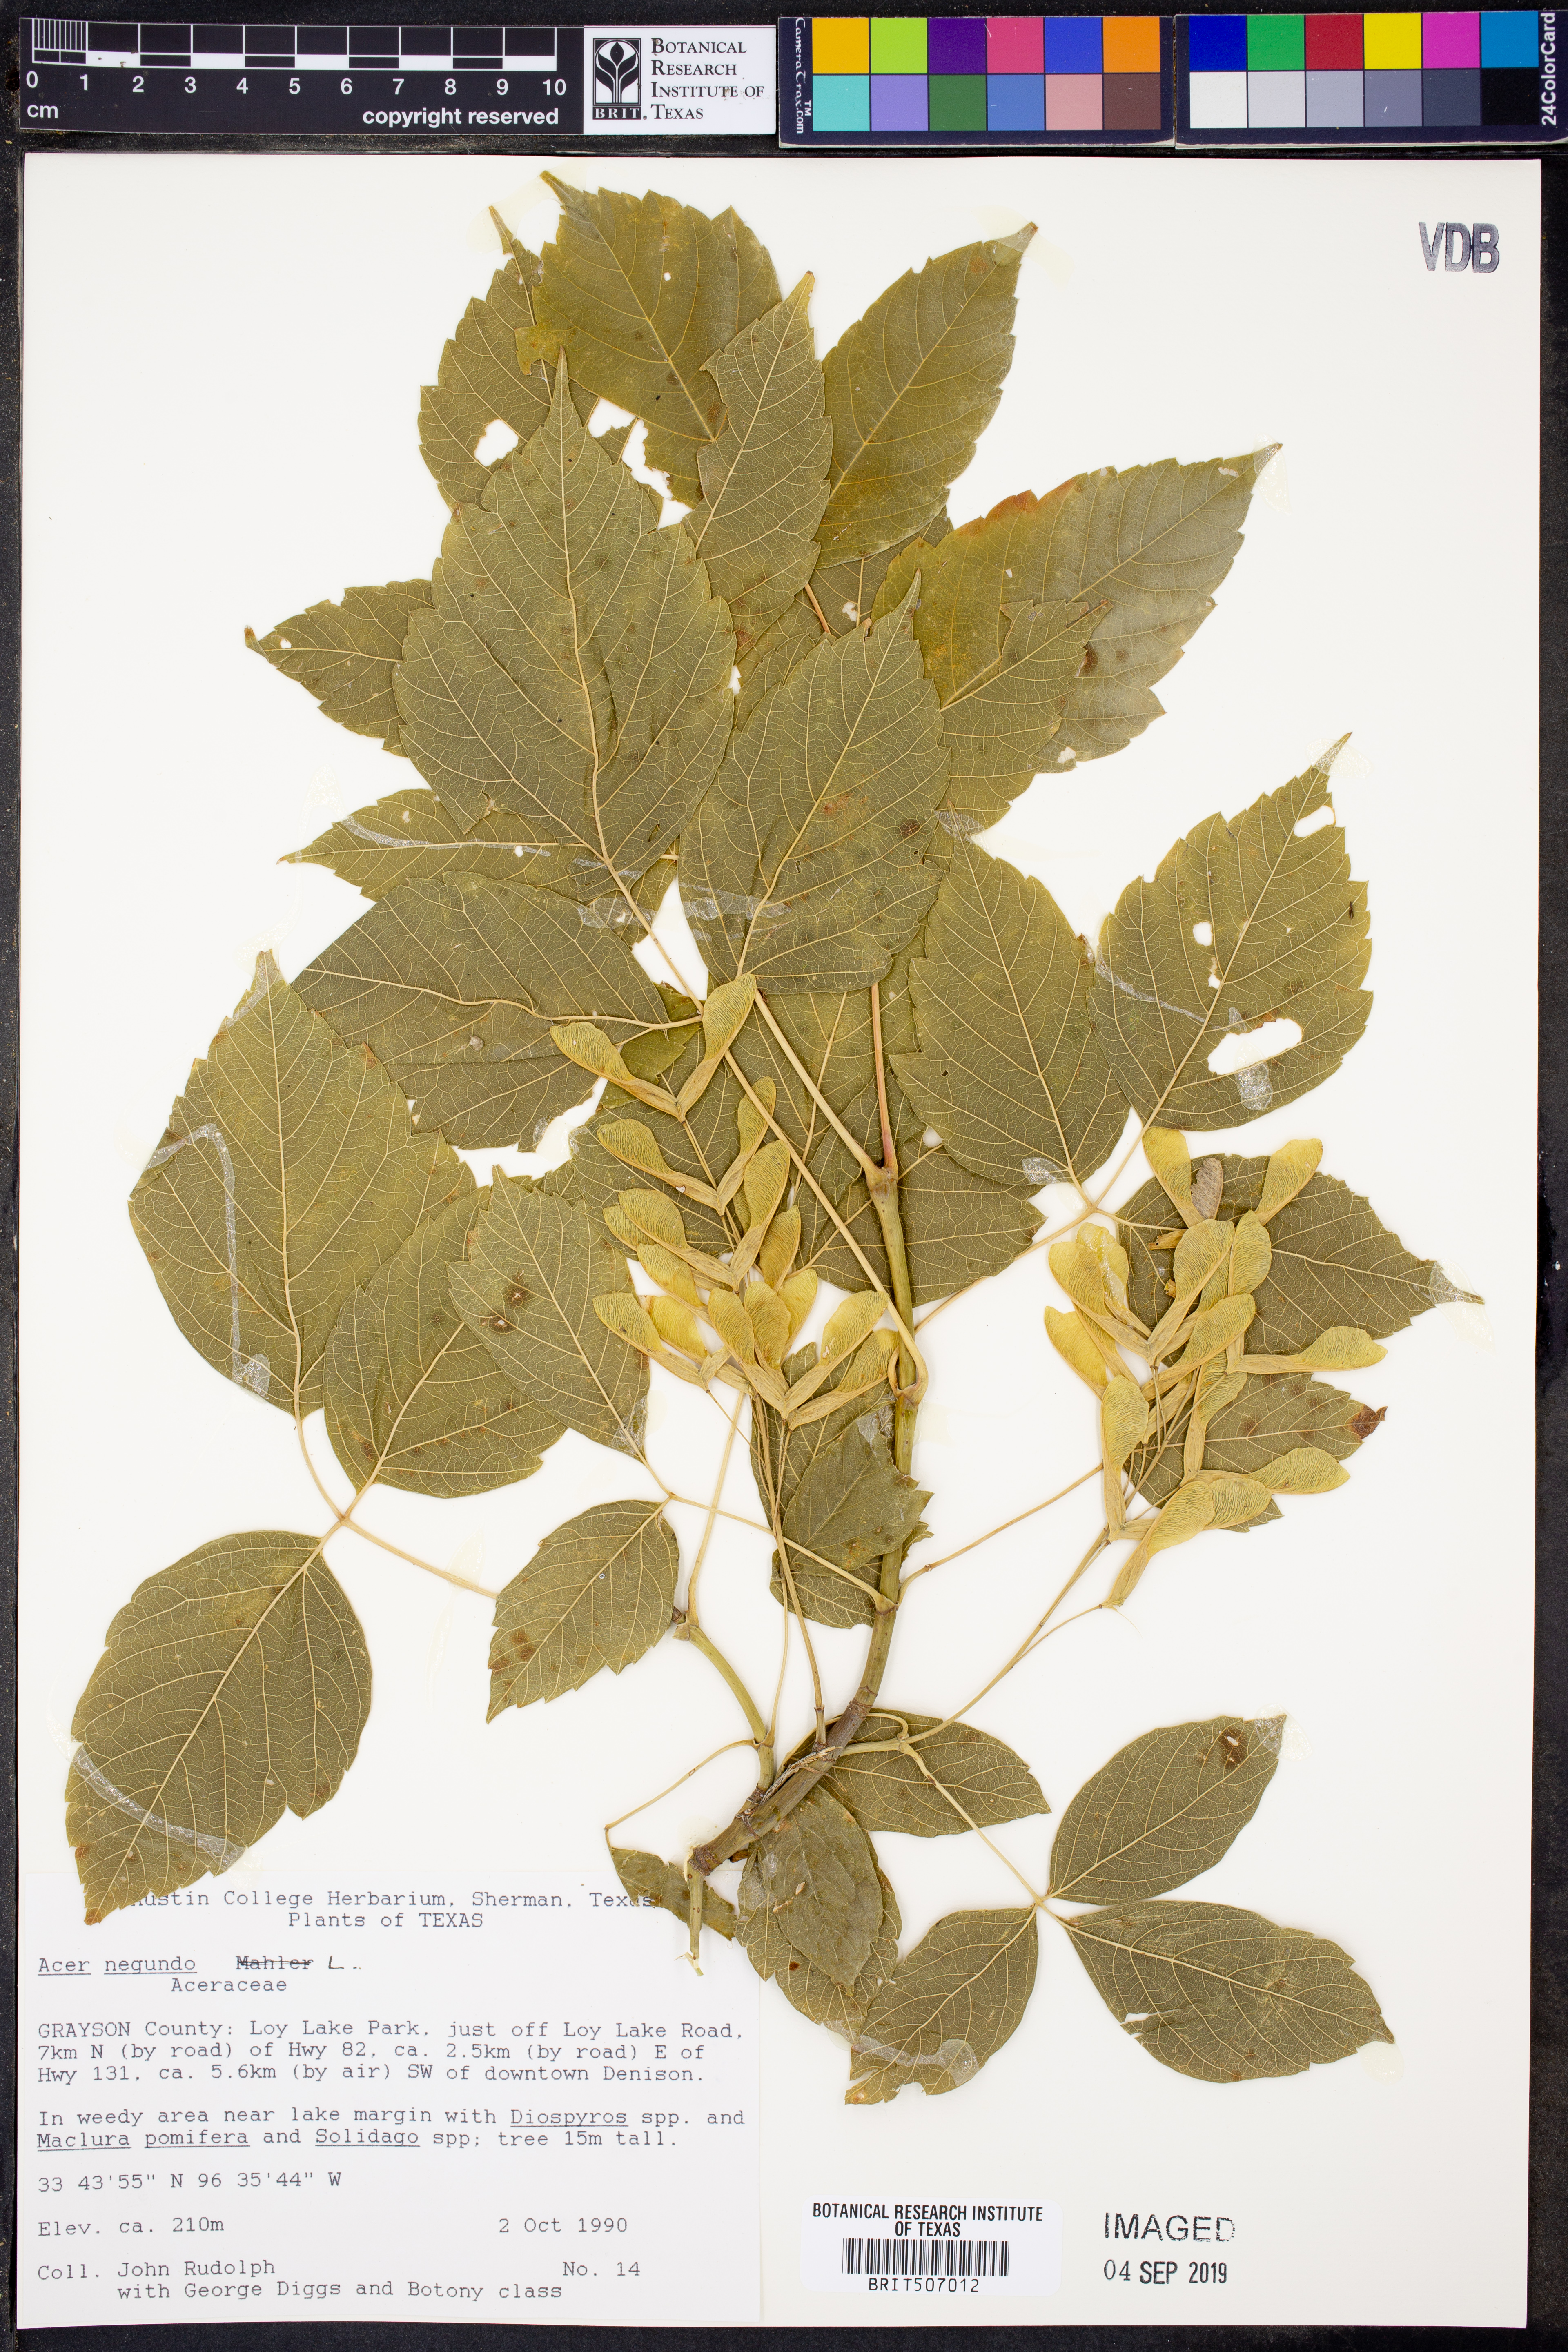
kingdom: Plantae
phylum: Tracheophyta
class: Magnoliopsida
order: Sapindales
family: Sapindaceae
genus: Acer
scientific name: Acer negundo
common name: Ashleaf maple
